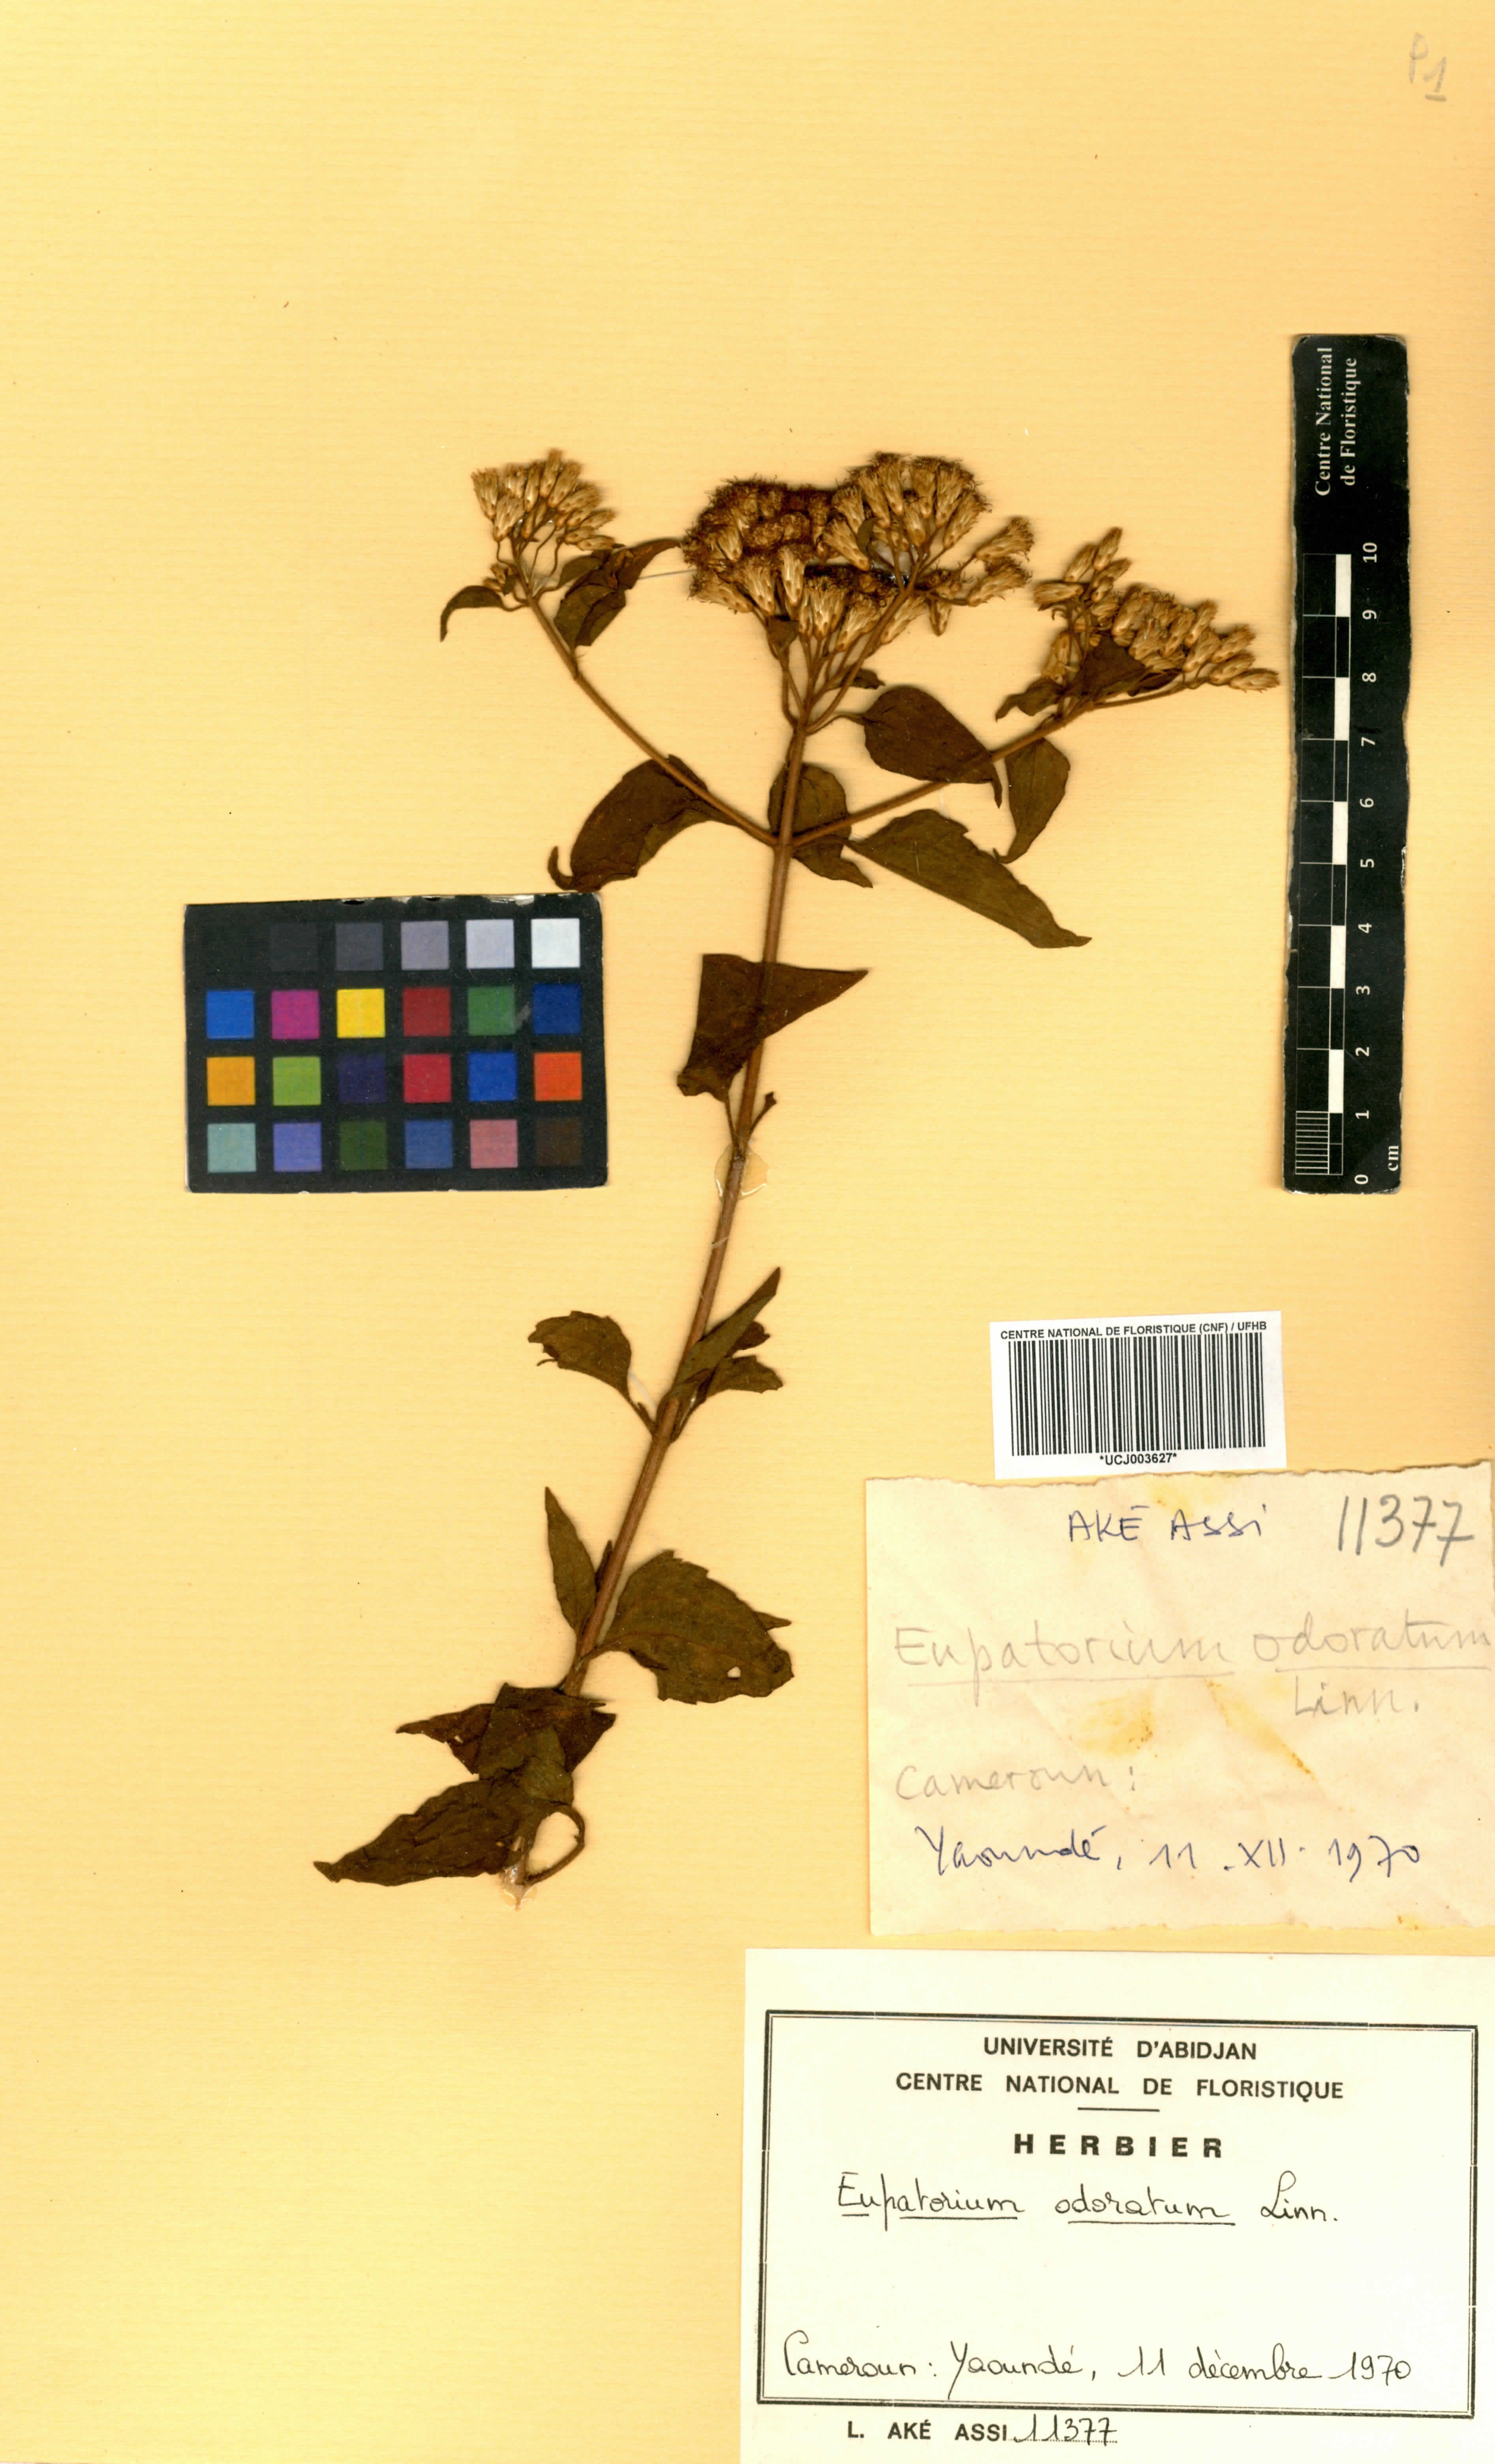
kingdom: Plantae
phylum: Tracheophyta
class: Magnoliopsida
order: Asterales
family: Asteraceae
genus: Chromolaena
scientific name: Chromolaena odorata
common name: Siamweed
